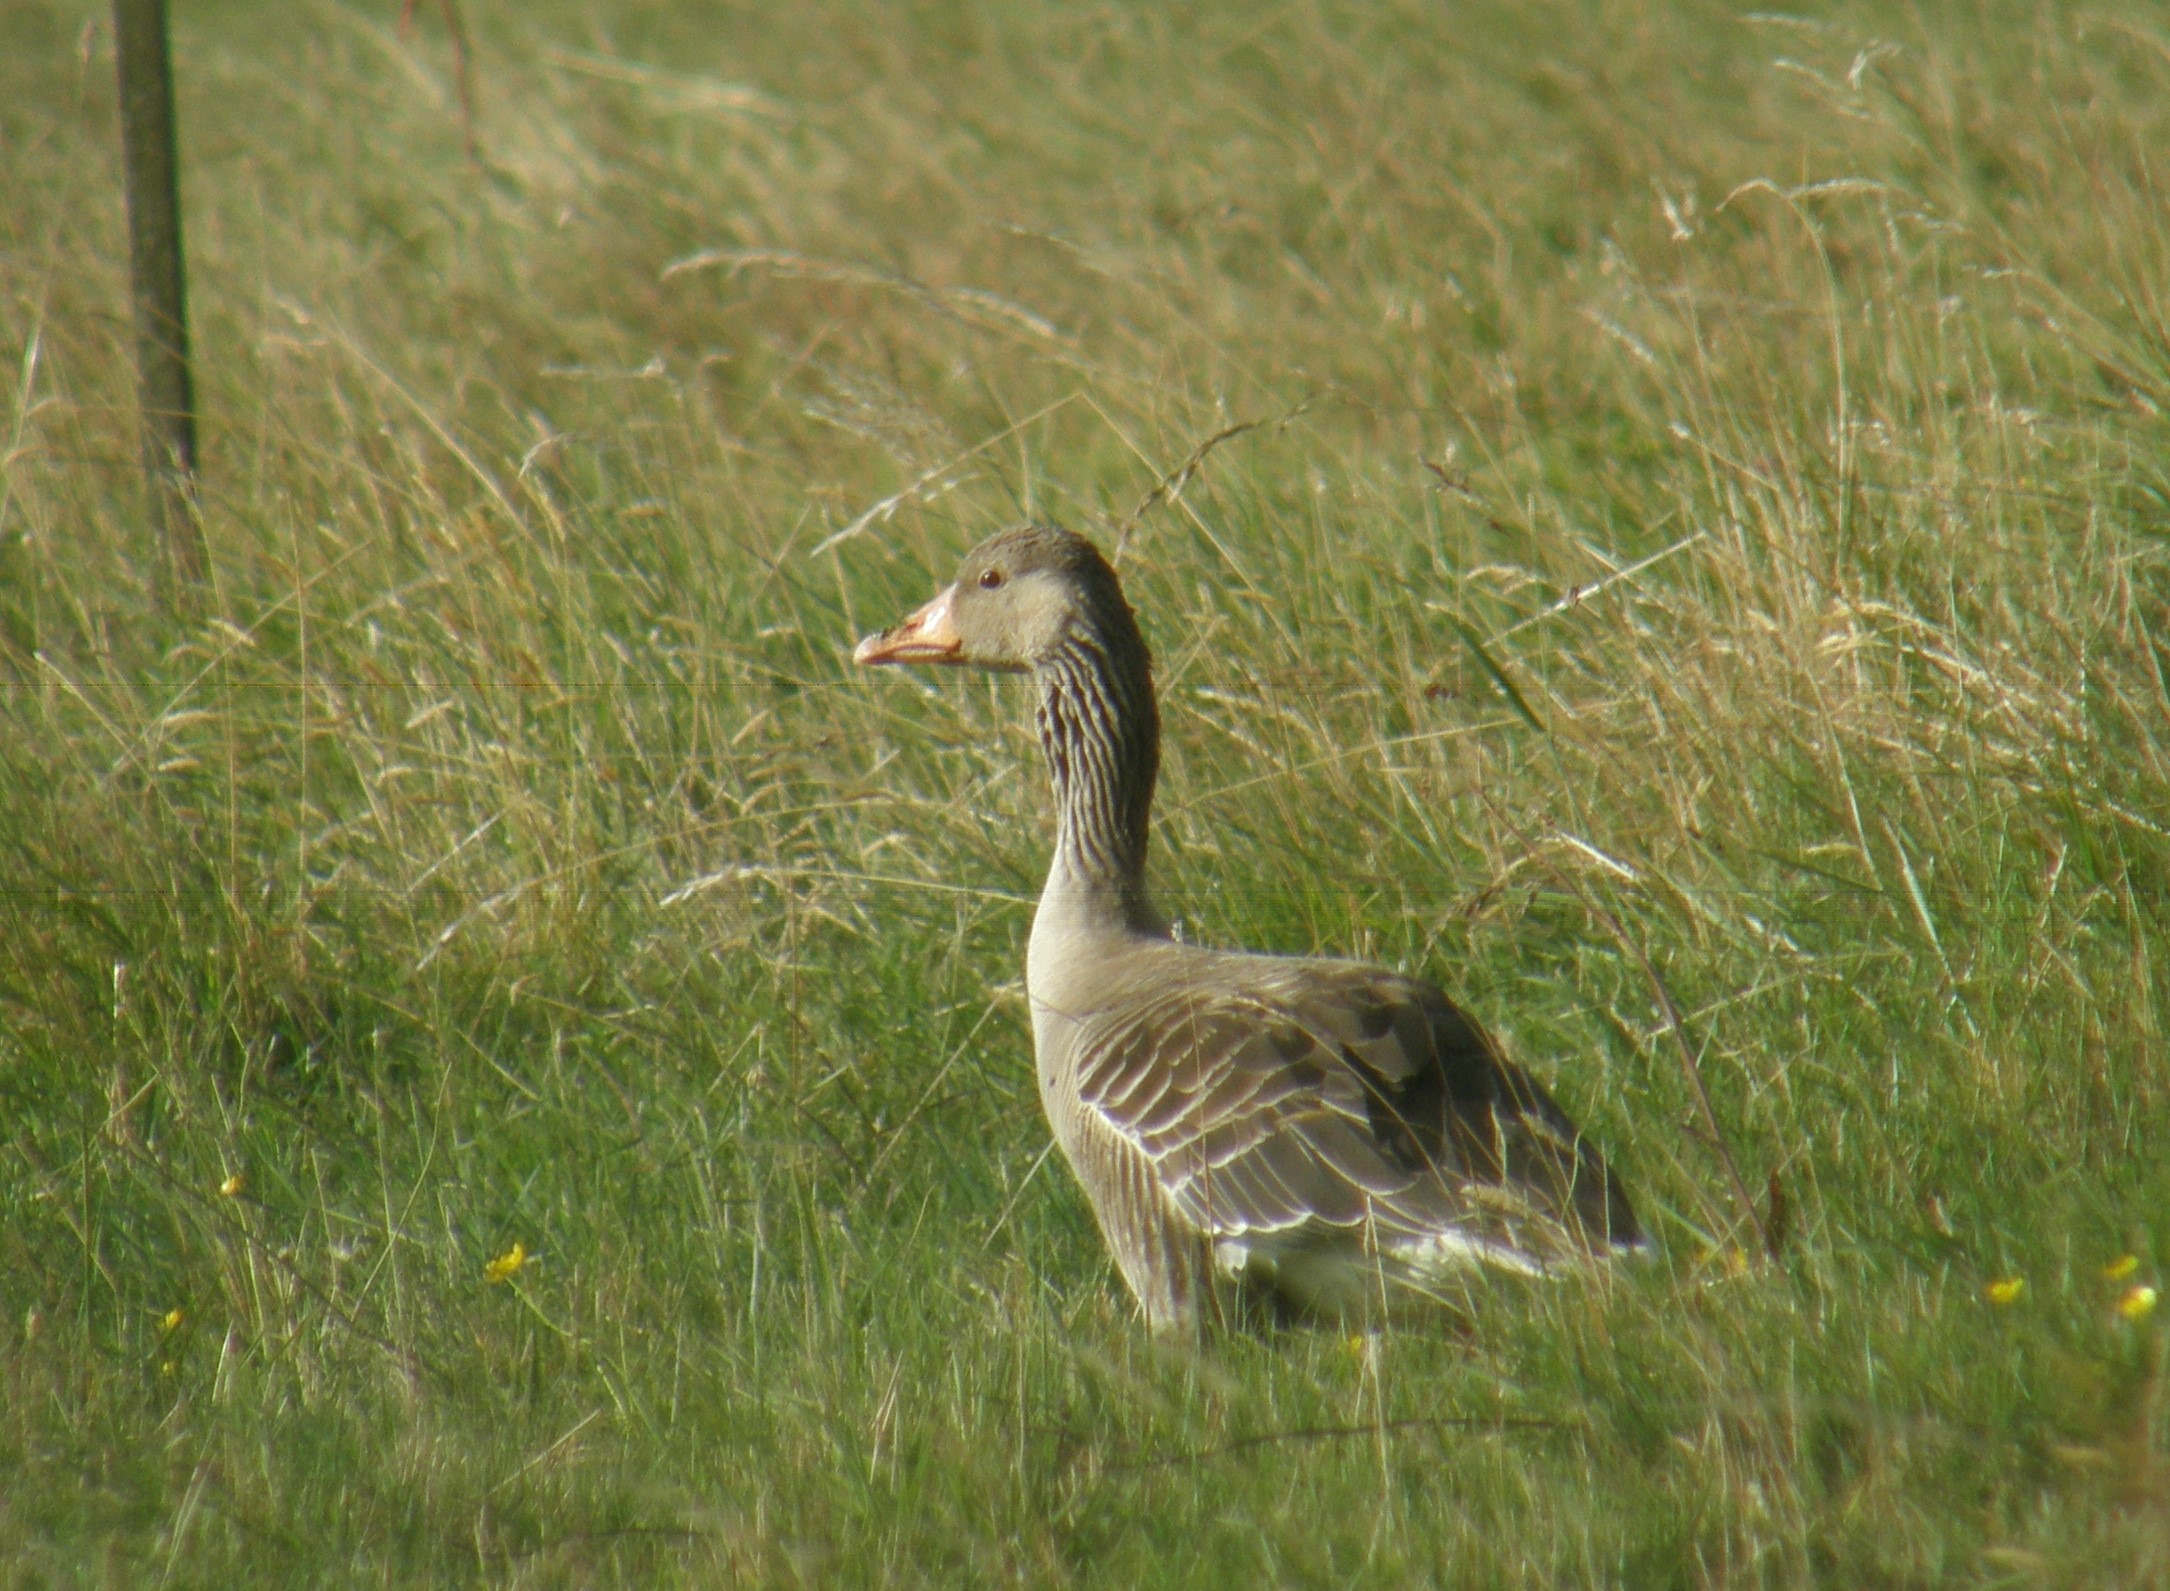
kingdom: Animalia
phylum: Chordata
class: Aves
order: Anseriformes
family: Anatidae
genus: Anser
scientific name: Anser anser
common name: Grågås
